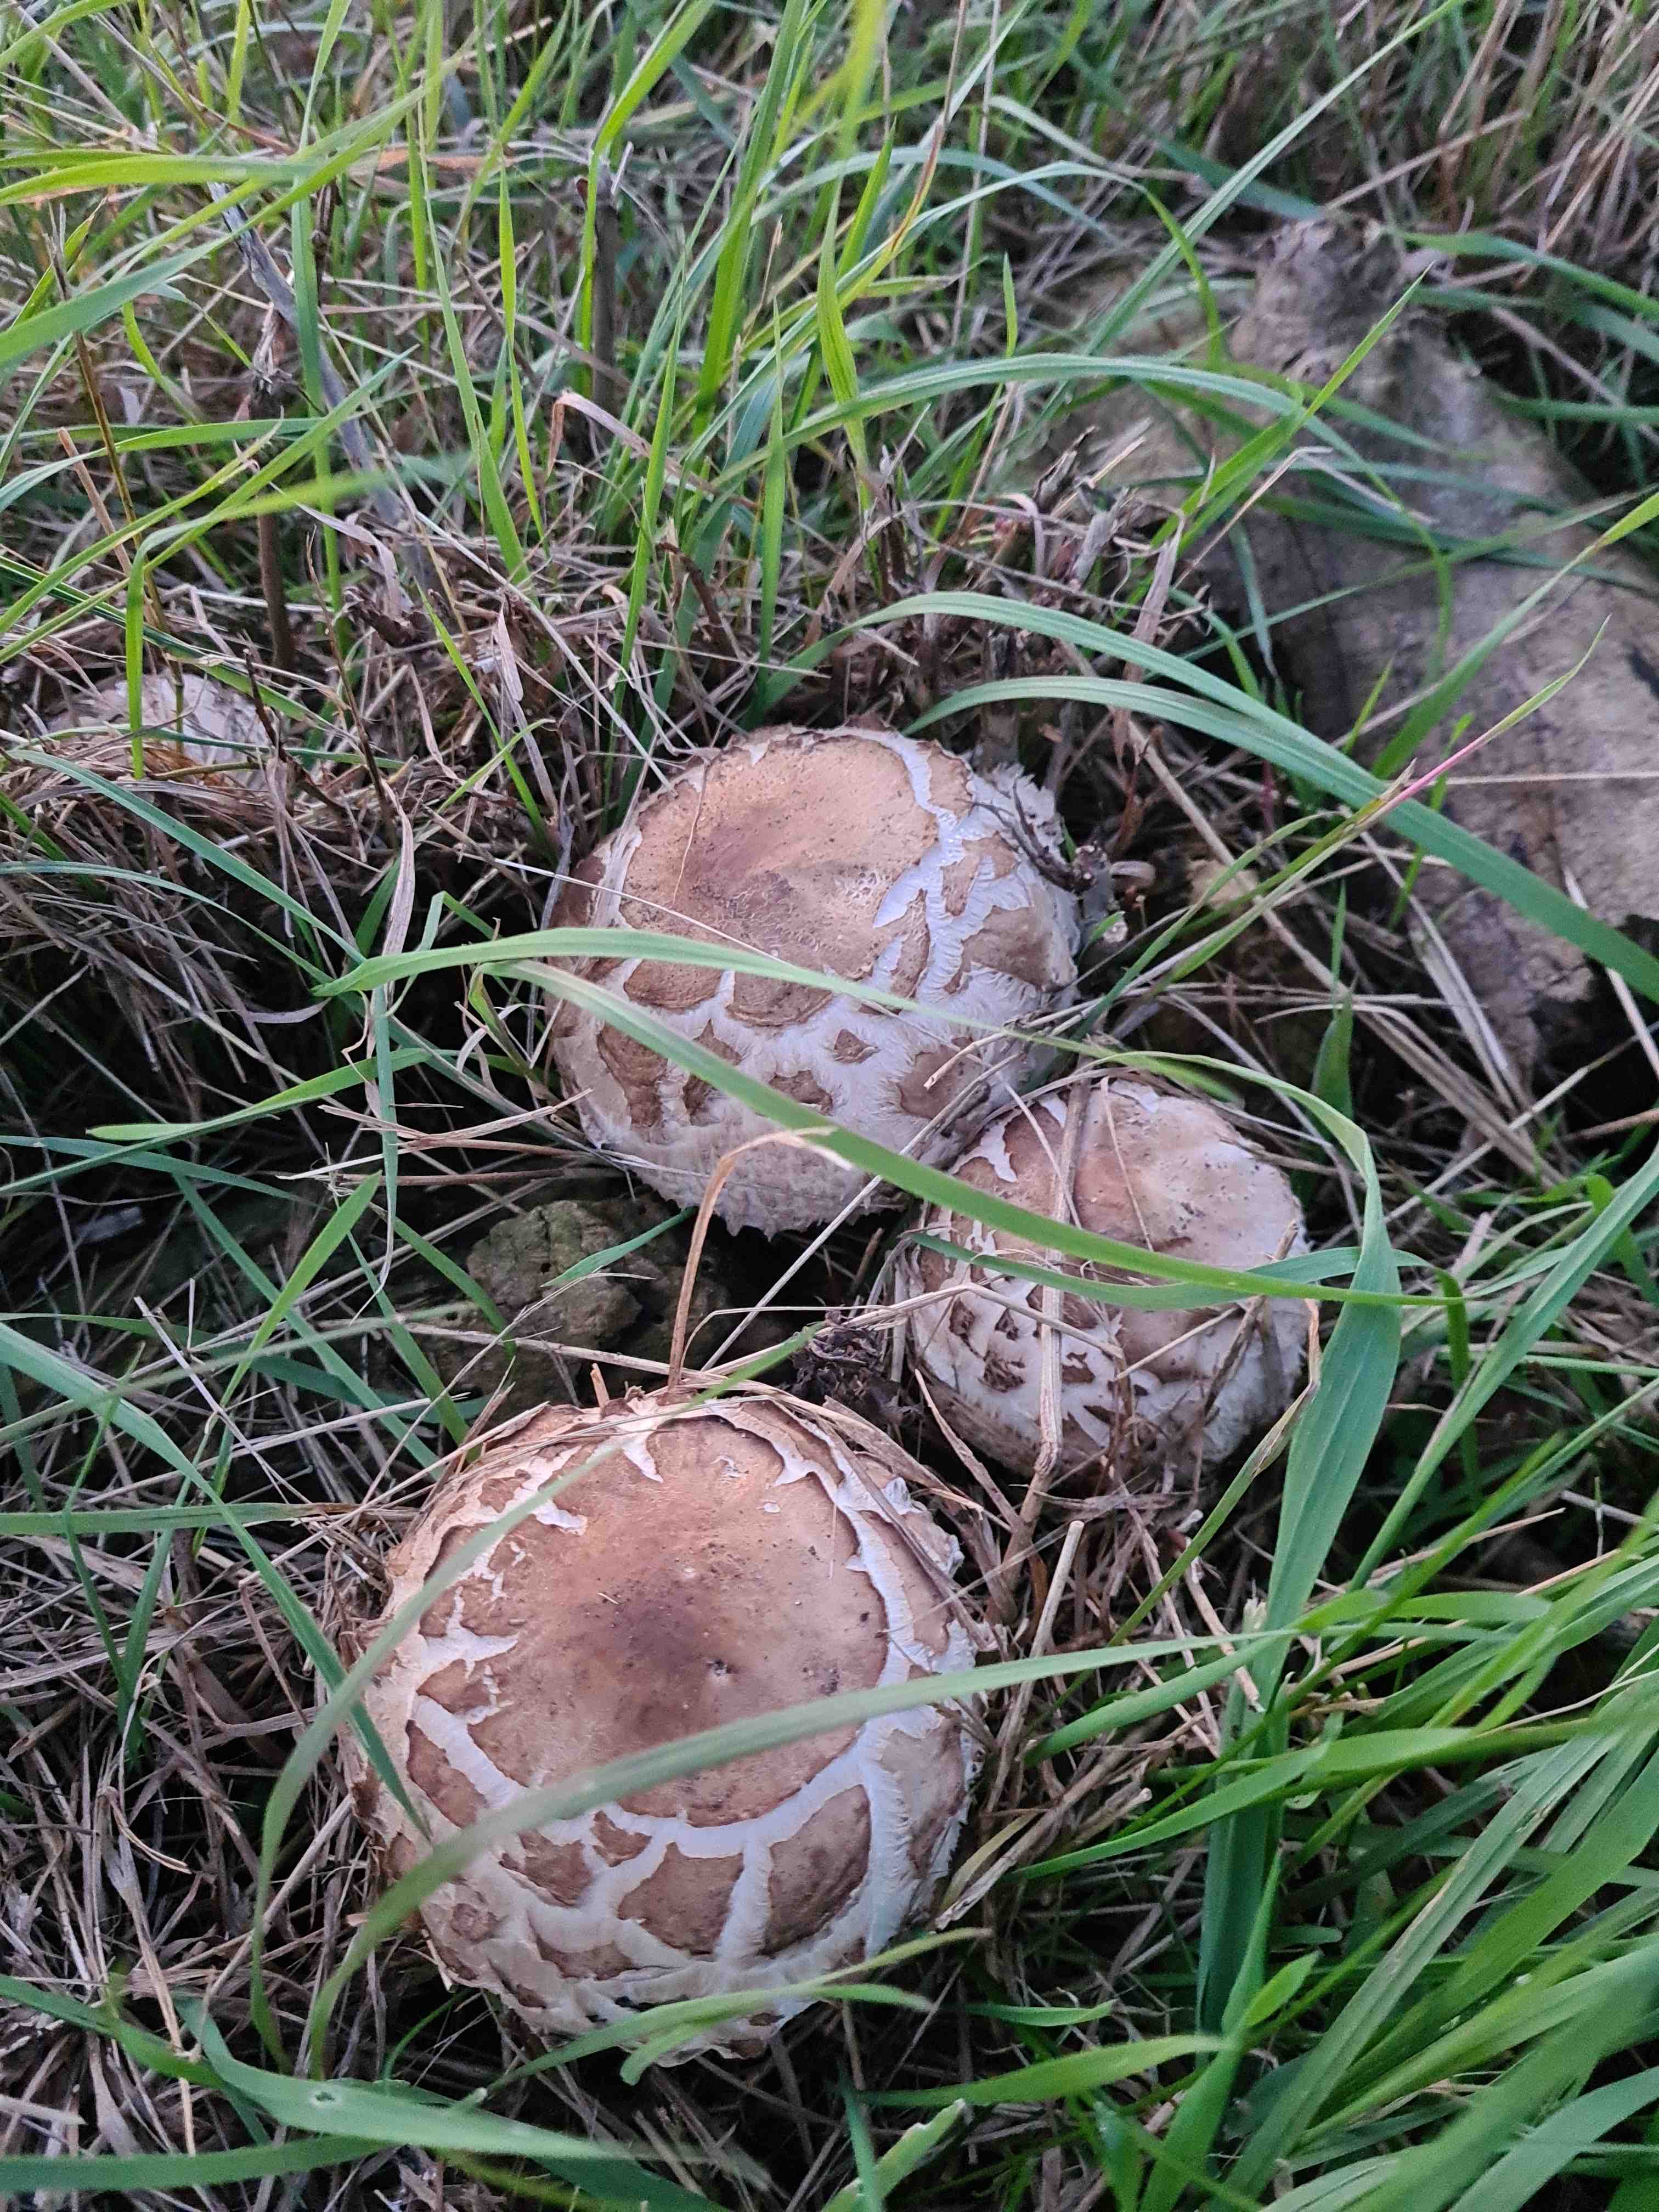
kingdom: Fungi
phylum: Basidiomycota
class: Agaricomycetes
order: Agaricales
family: Agaricaceae
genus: Chlorophyllum
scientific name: Chlorophyllum
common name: rabarberhat
